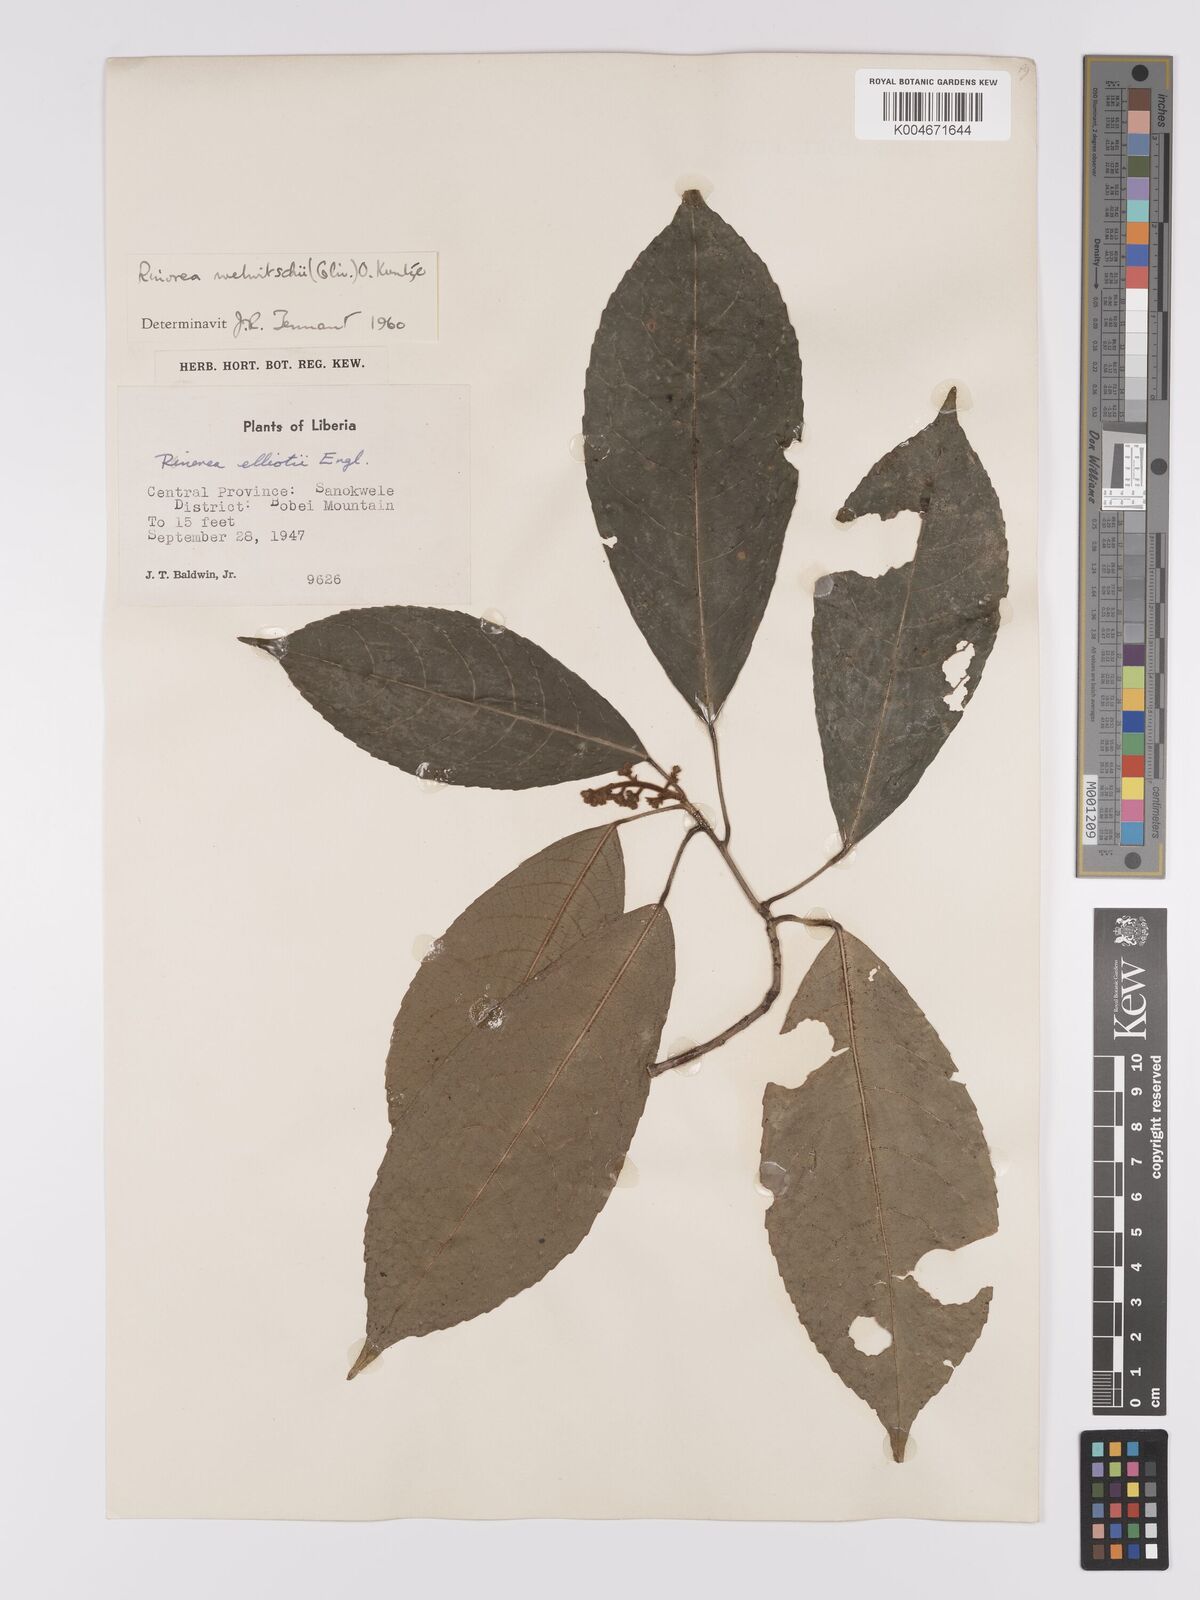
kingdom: Plantae
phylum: Tracheophyta
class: Magnoliopsida
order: Malpighiales
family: Violaceae
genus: Rinorea
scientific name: Rinorea welwitschii
